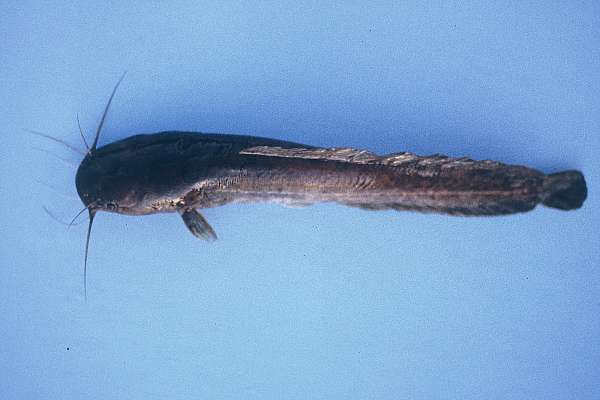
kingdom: Animalia
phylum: Chordata
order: Siluriformes
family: Clariidae
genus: Clarias
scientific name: Clarias stappersii
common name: Blotched catfish
